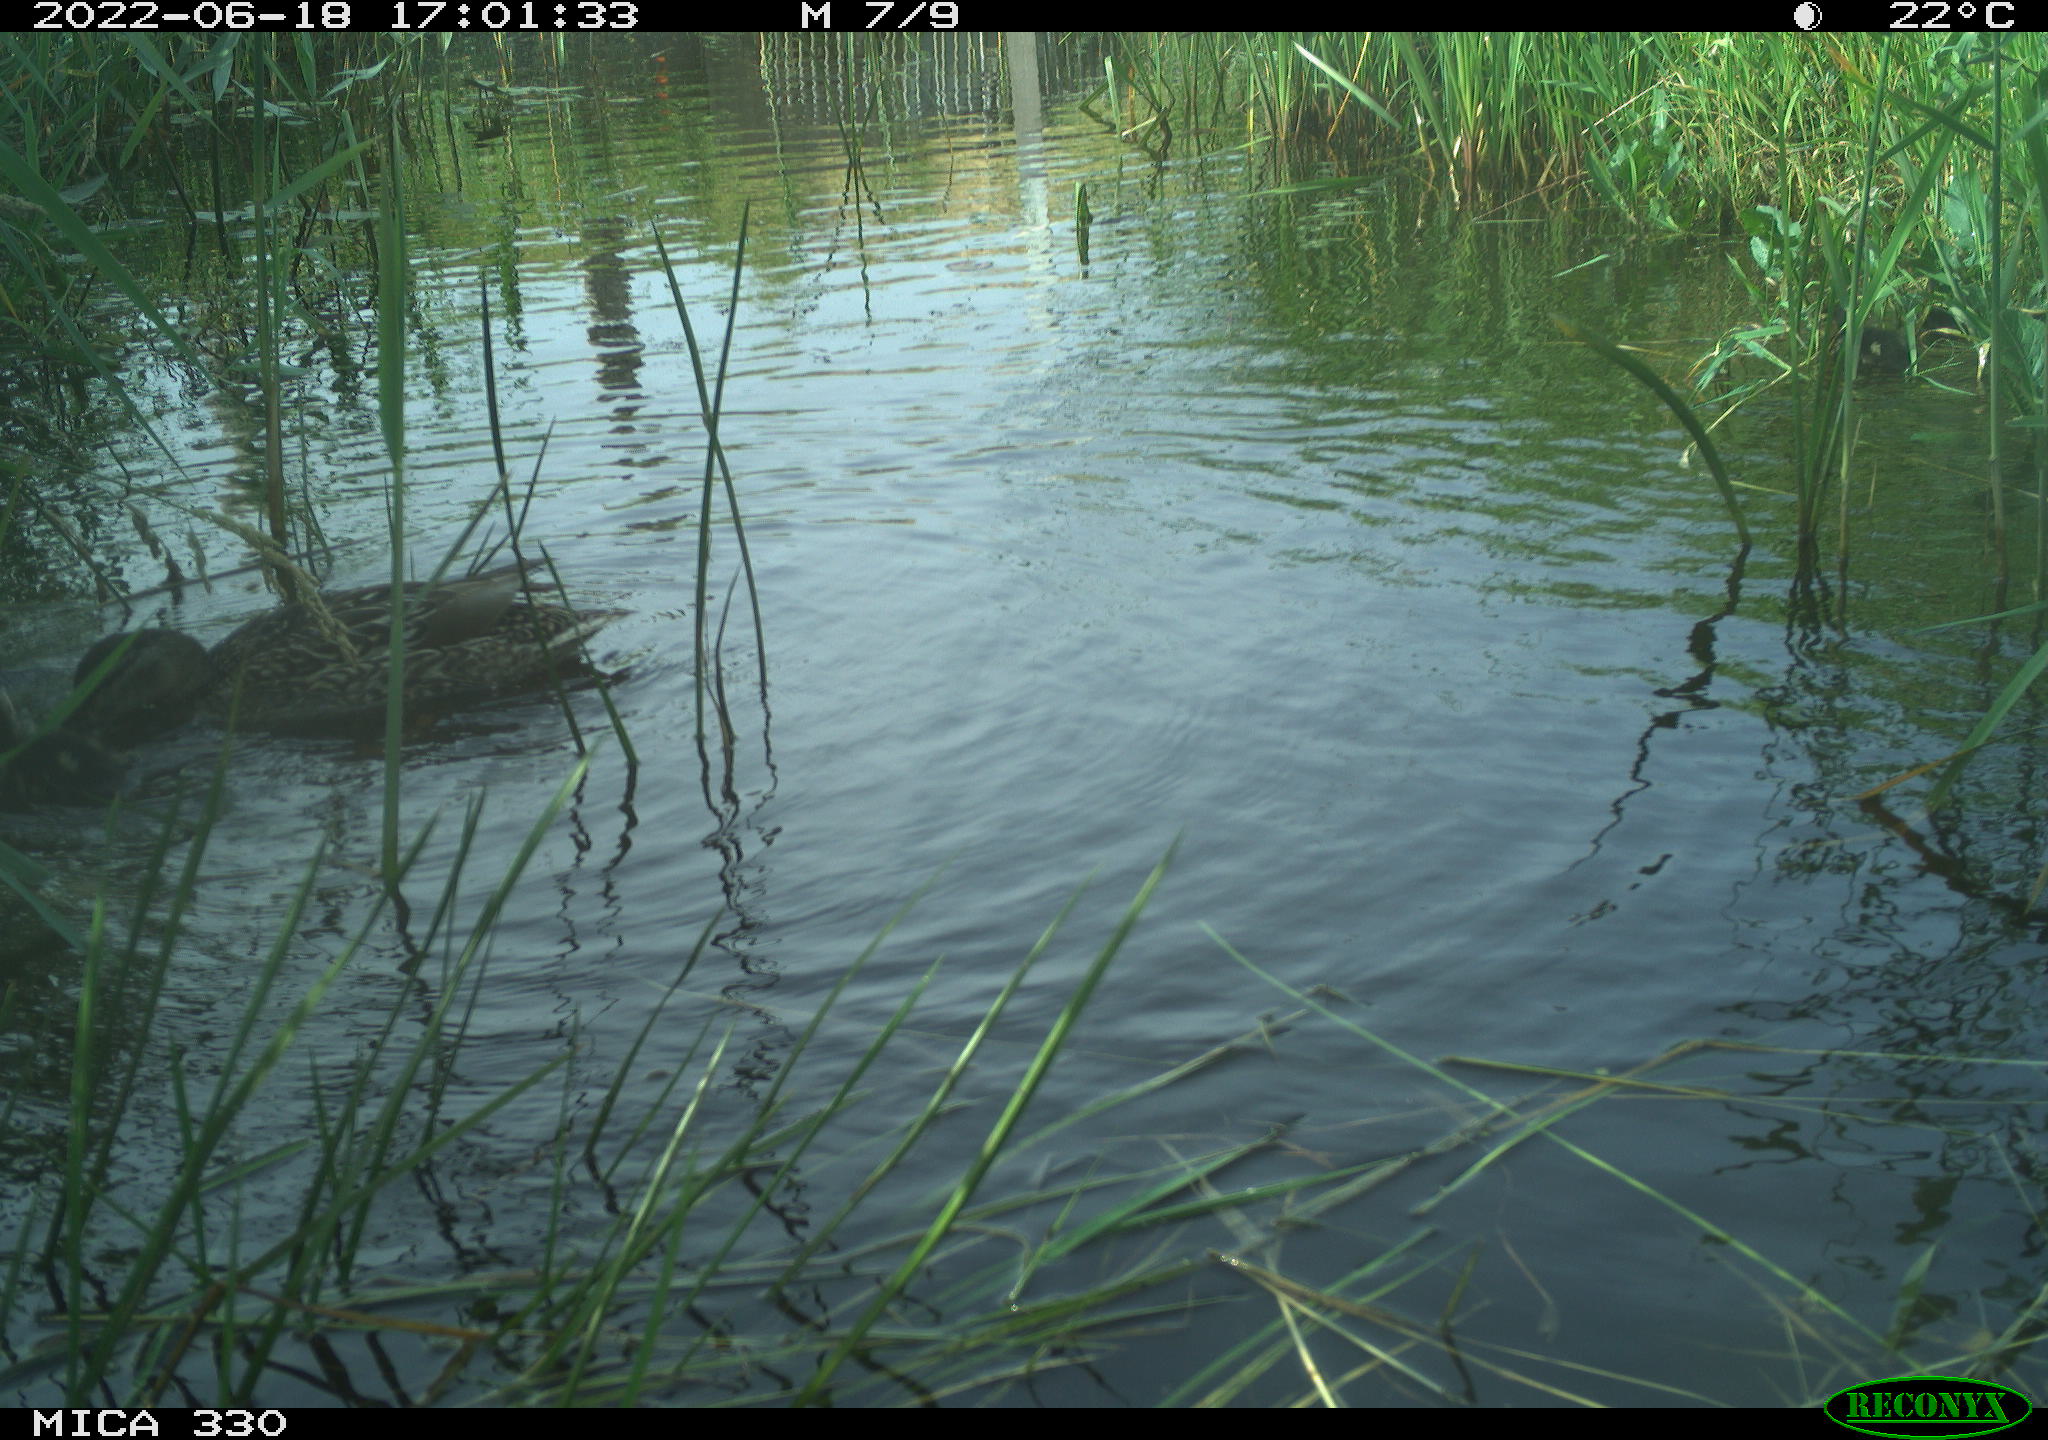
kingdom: Animalia
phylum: Chordata
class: Aves
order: Gruiformes
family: Rallidae
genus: Gallinula
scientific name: Gallinula chloropus
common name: Common moorhen
